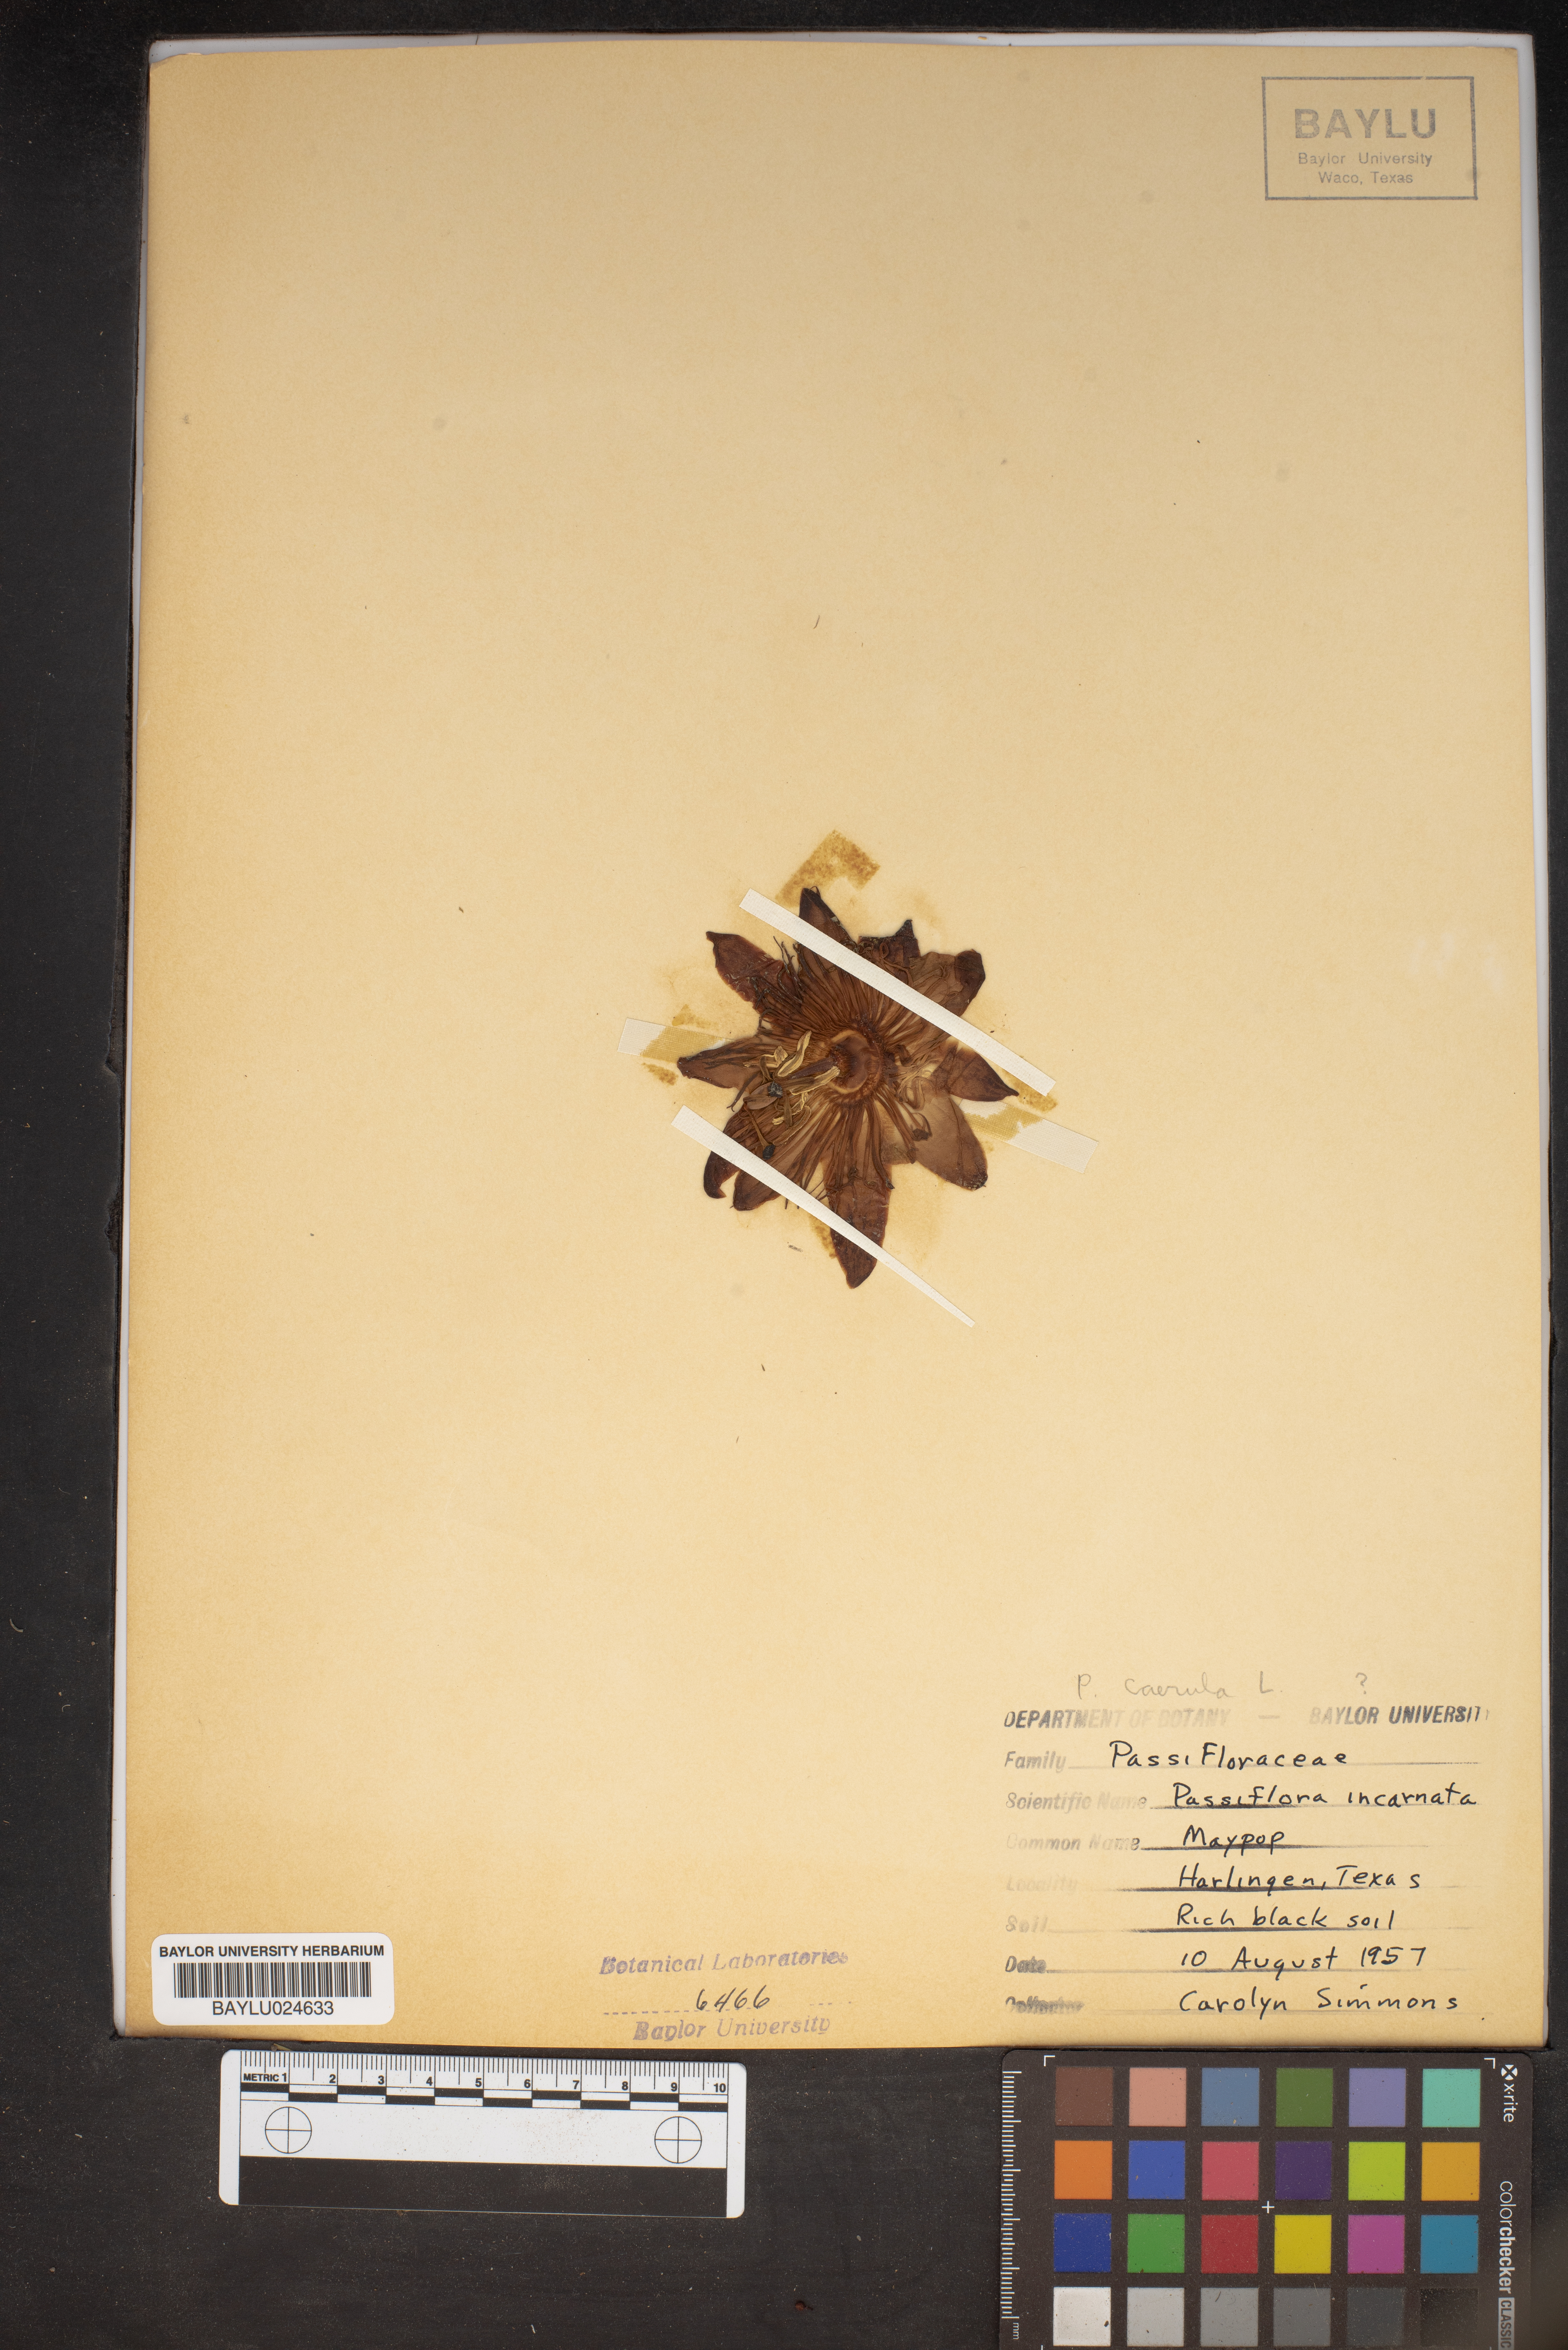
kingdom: Plantae
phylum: Tracheophyta
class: Magnoliopsida
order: Malpighiales
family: Passifloraceae
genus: Passiflora
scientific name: Passiflora incarnata
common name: Apricot-vine
